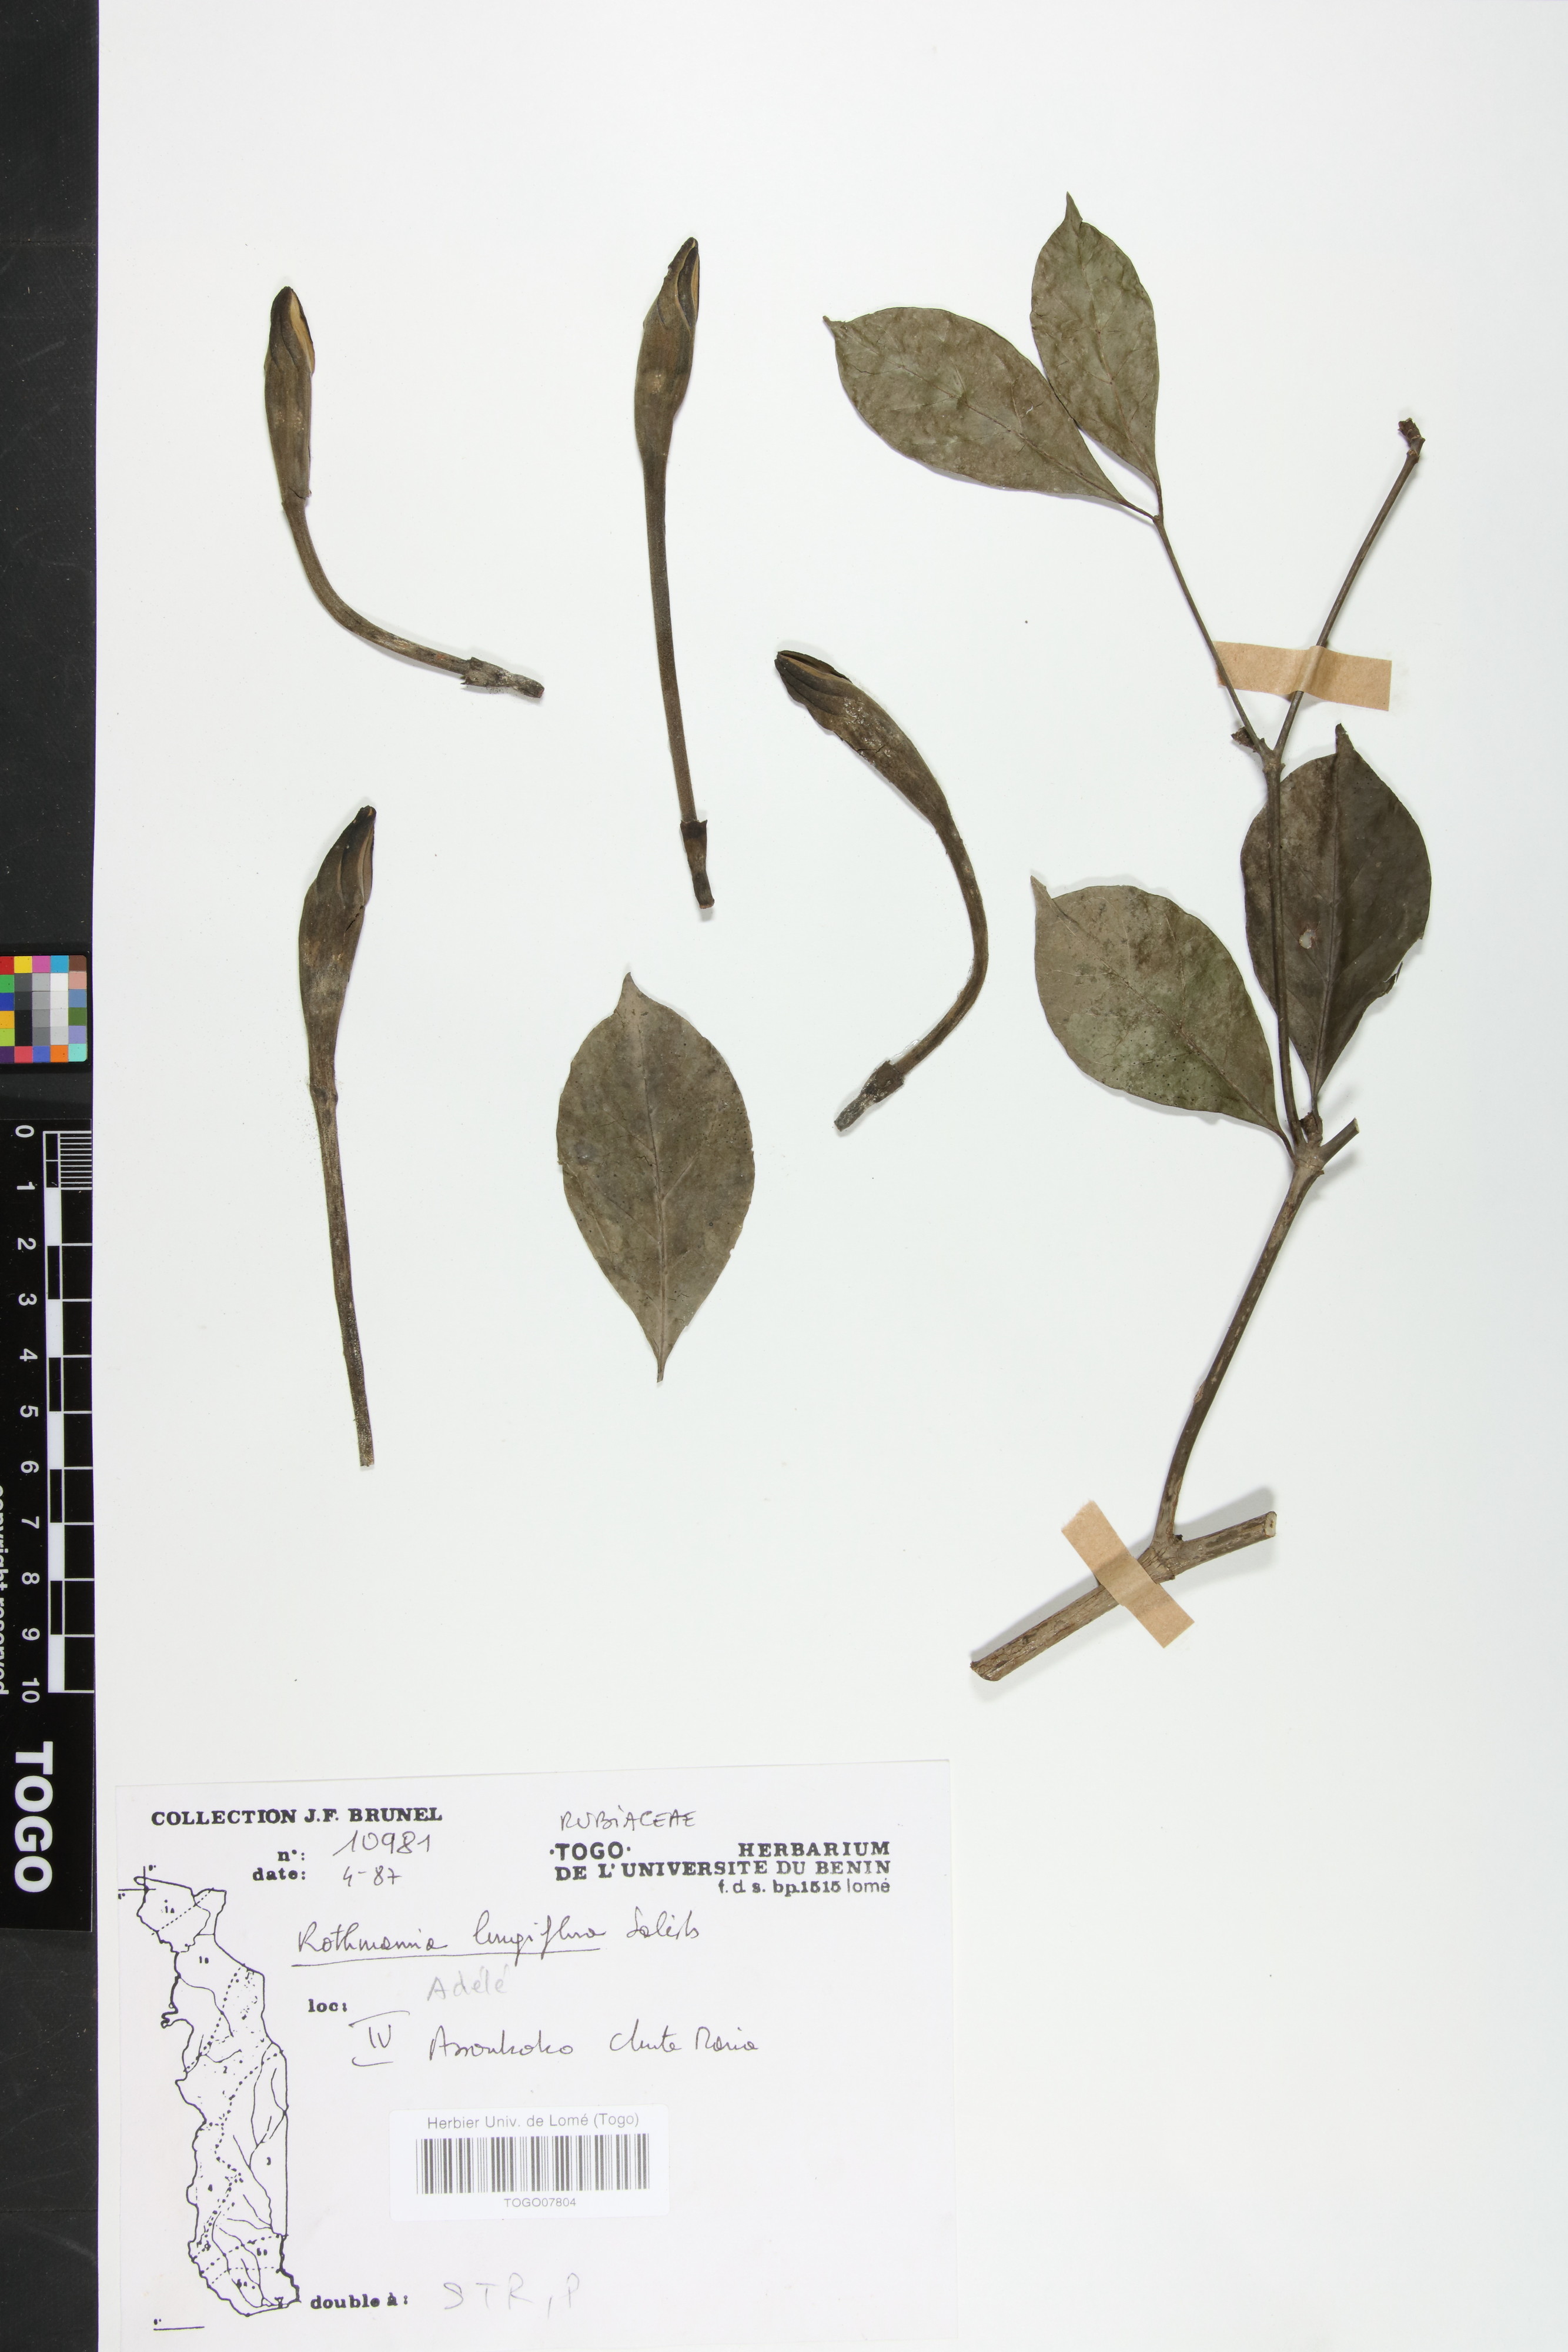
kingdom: Plantae
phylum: Tracheophyta
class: Magnoliopsida
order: Gentianales
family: Rubiaceae
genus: Rothmannia
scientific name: Rothmannia longiflora
